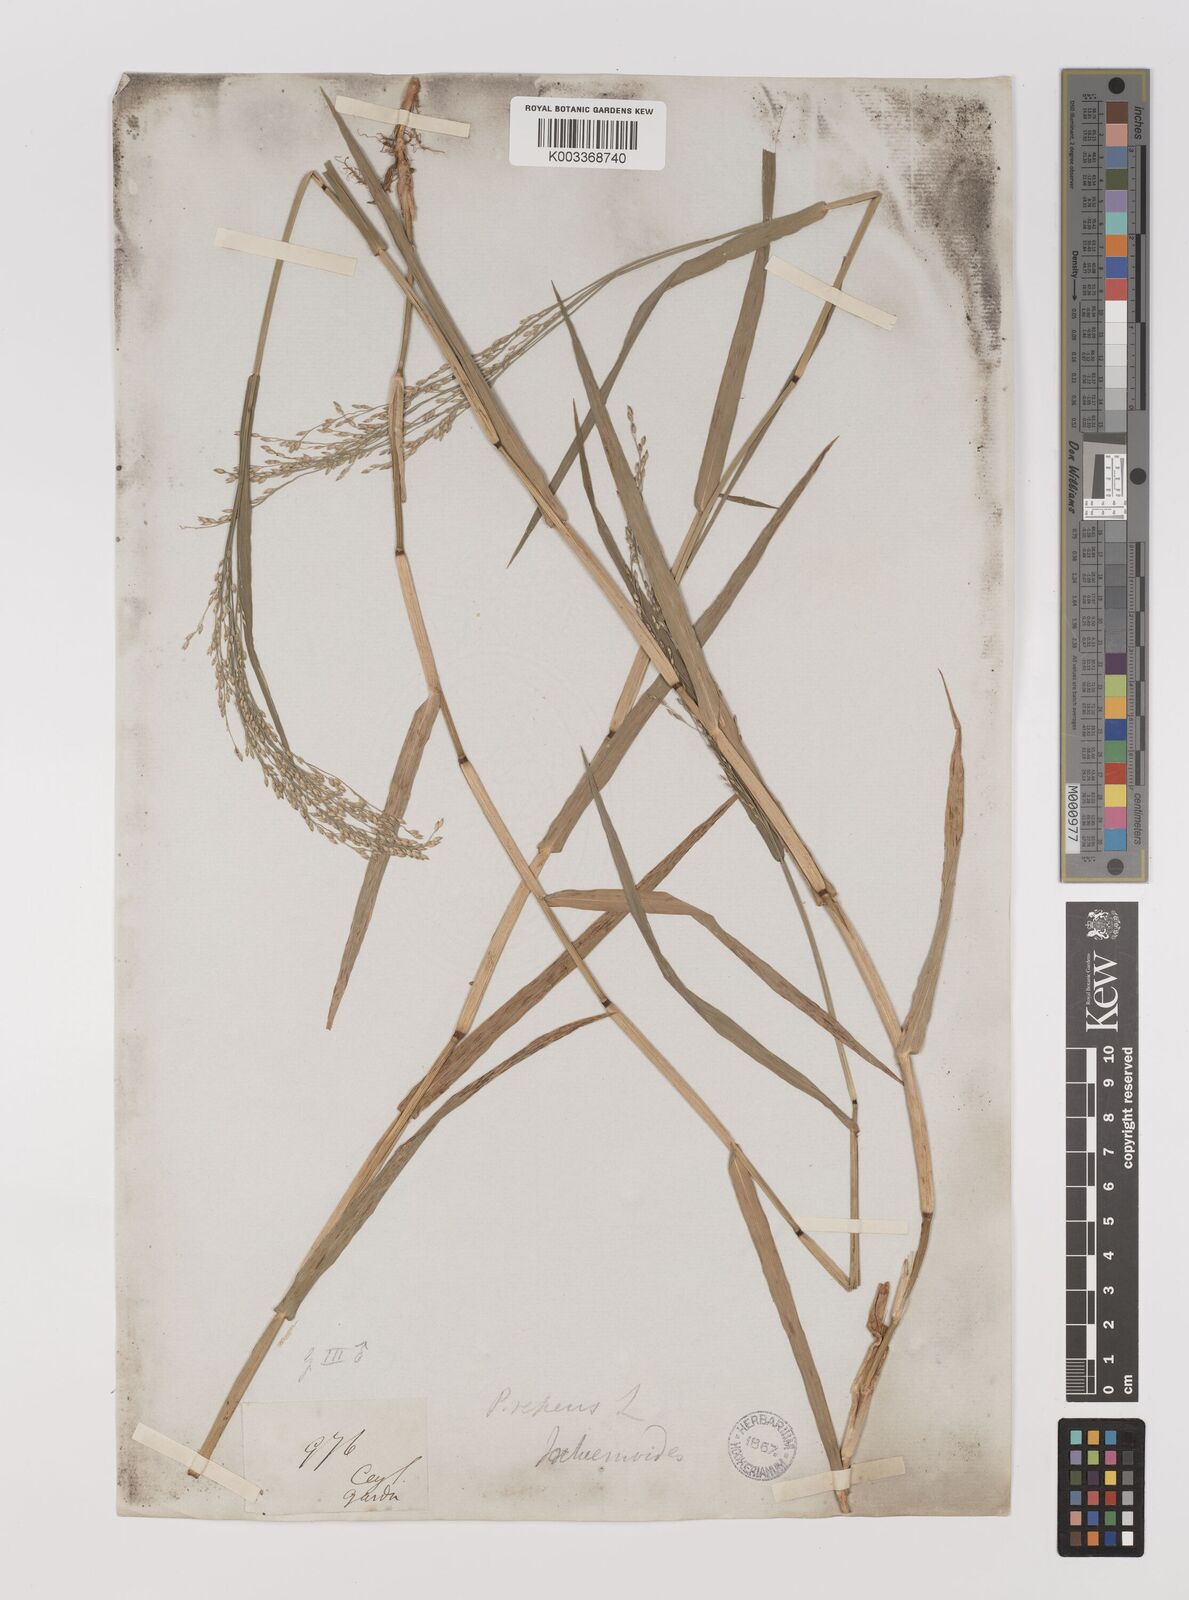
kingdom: Plantae
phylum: Tracheophyta
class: Liliopsida
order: Poales
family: Poaceae
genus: Panicum
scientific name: Panicum repens
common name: Torpedo grass
